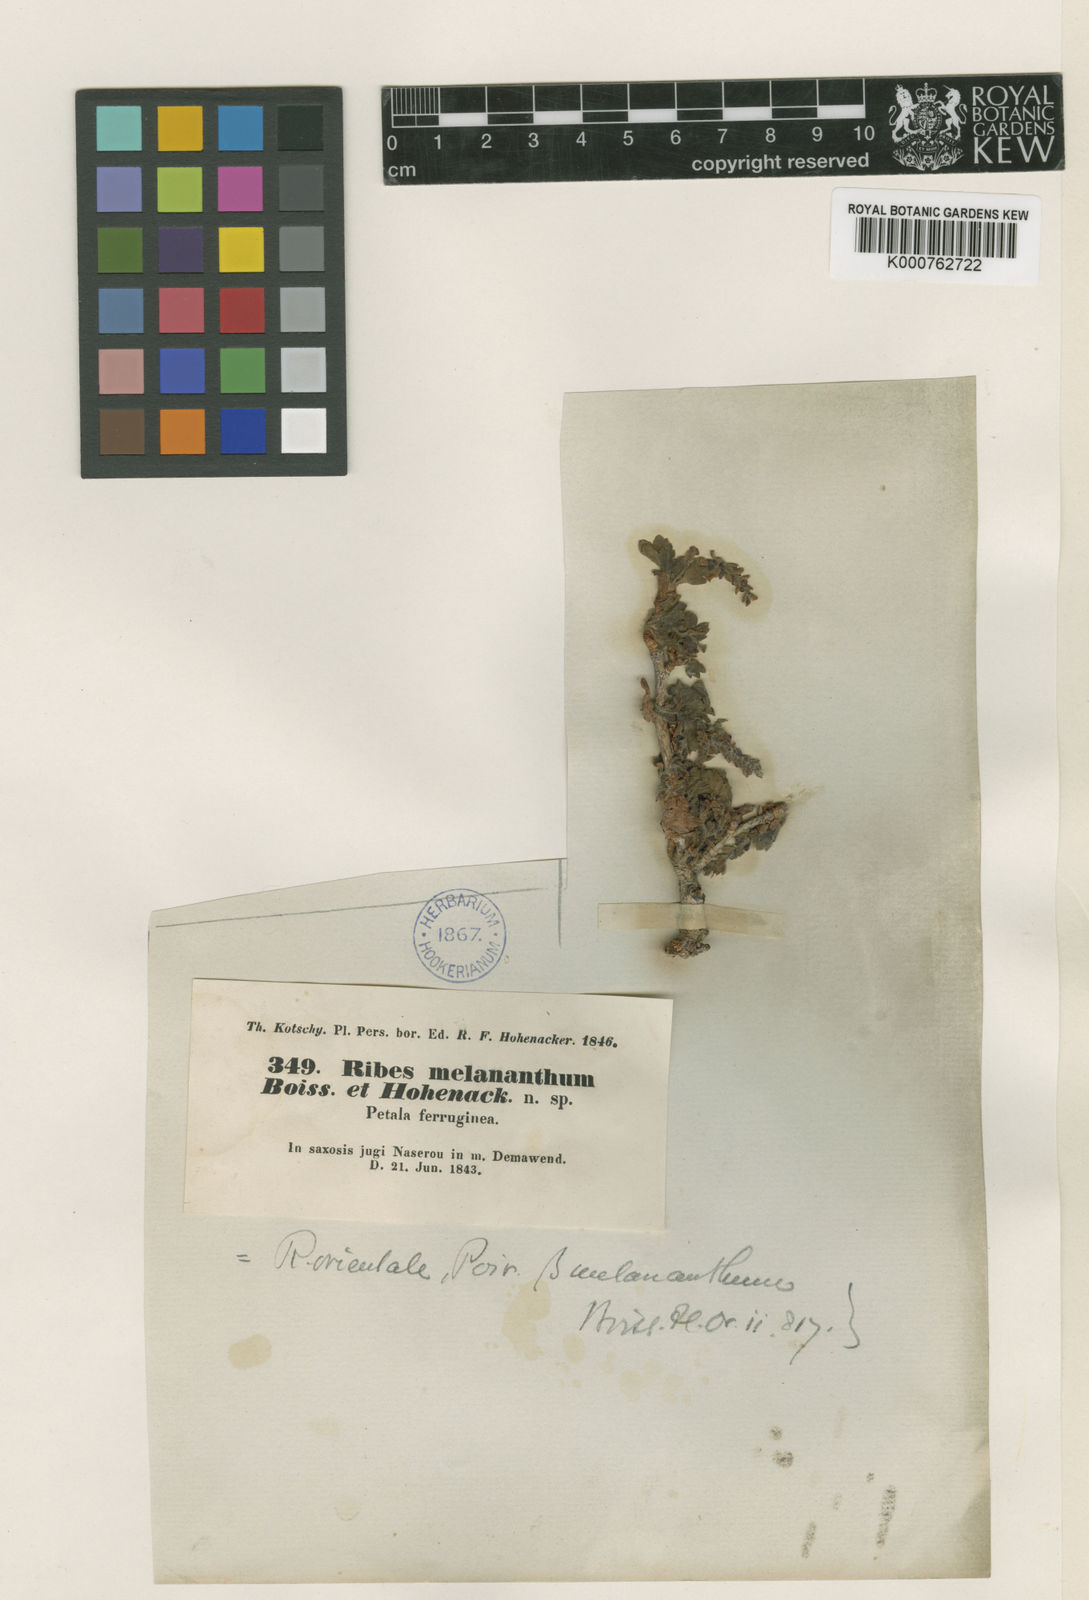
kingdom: Plantae
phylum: Tracheophyta
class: Magnoliopsida
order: Saxifragales
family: Grossulariaceae
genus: Ribes
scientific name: Ribes orientale
